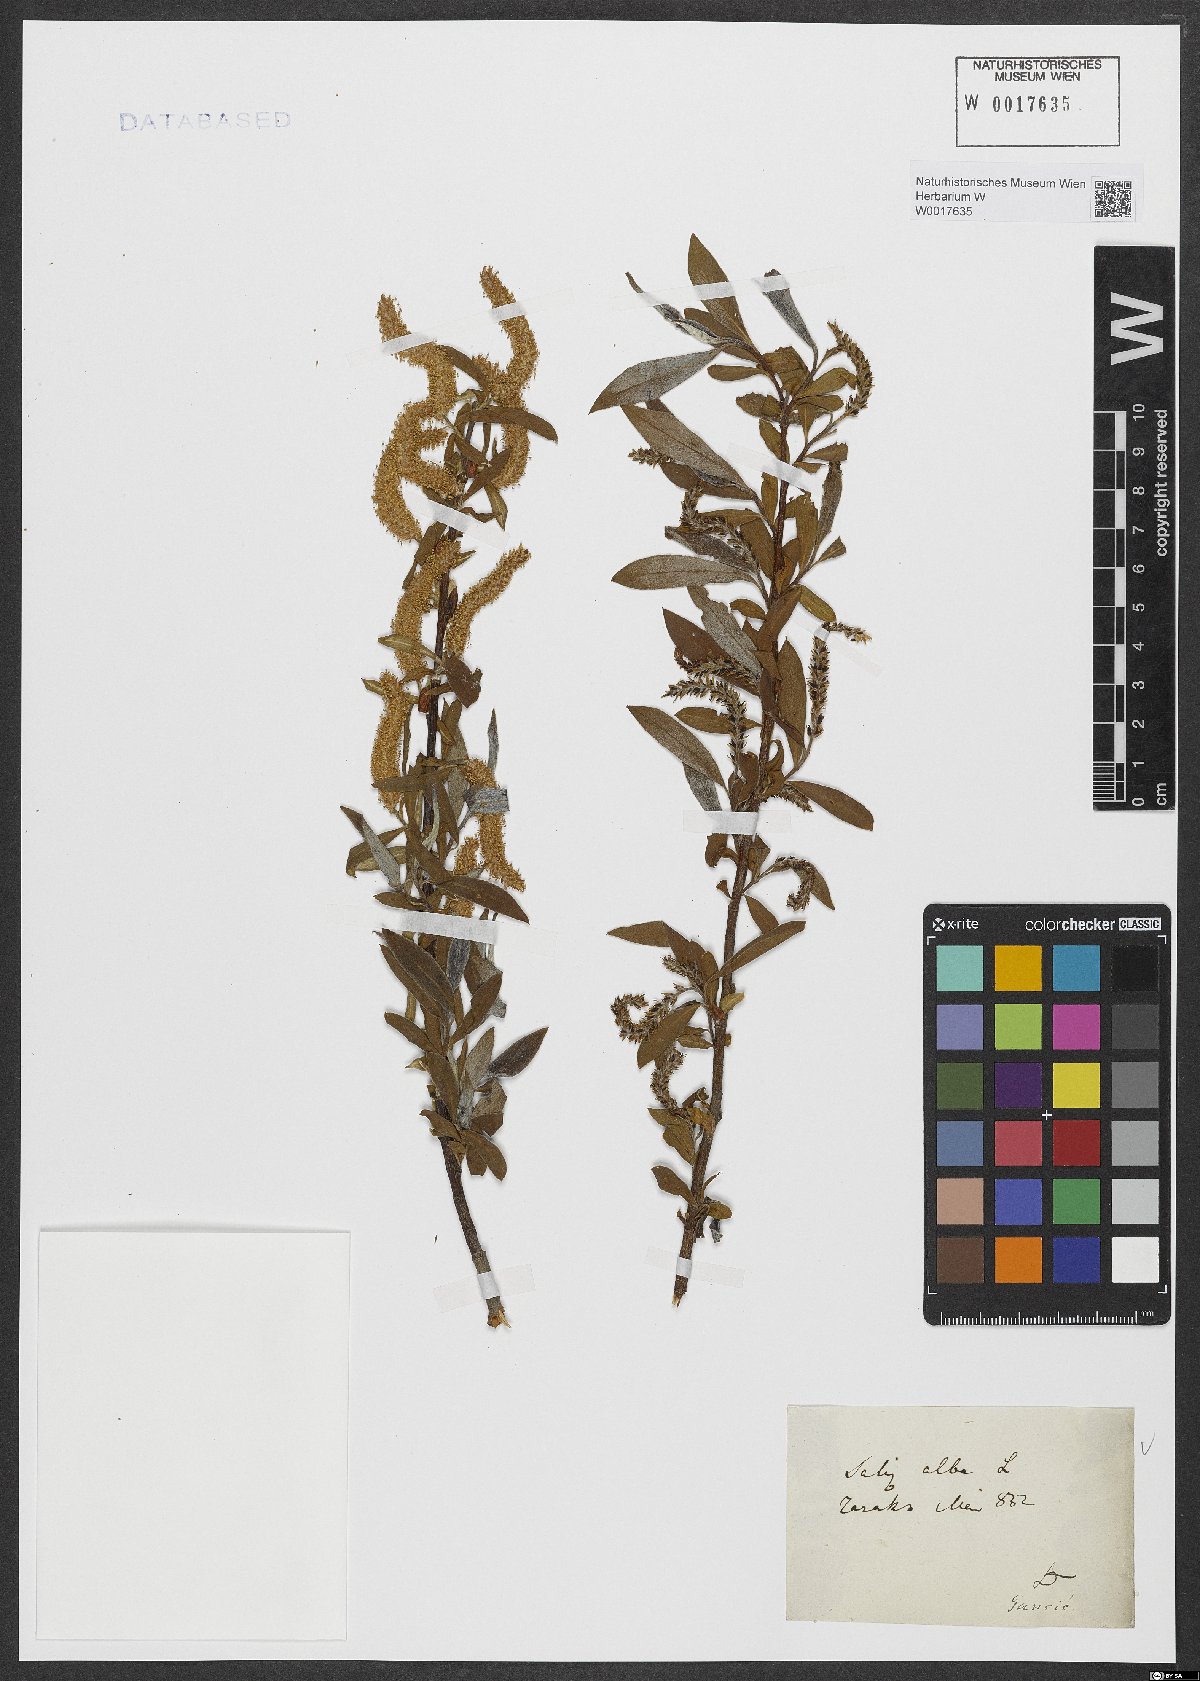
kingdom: Plantae
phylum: Tracheophyta
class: Magnoliopsida
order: Malpighiales
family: Salicaceae
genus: Salix
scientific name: Salix alba
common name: White willow
